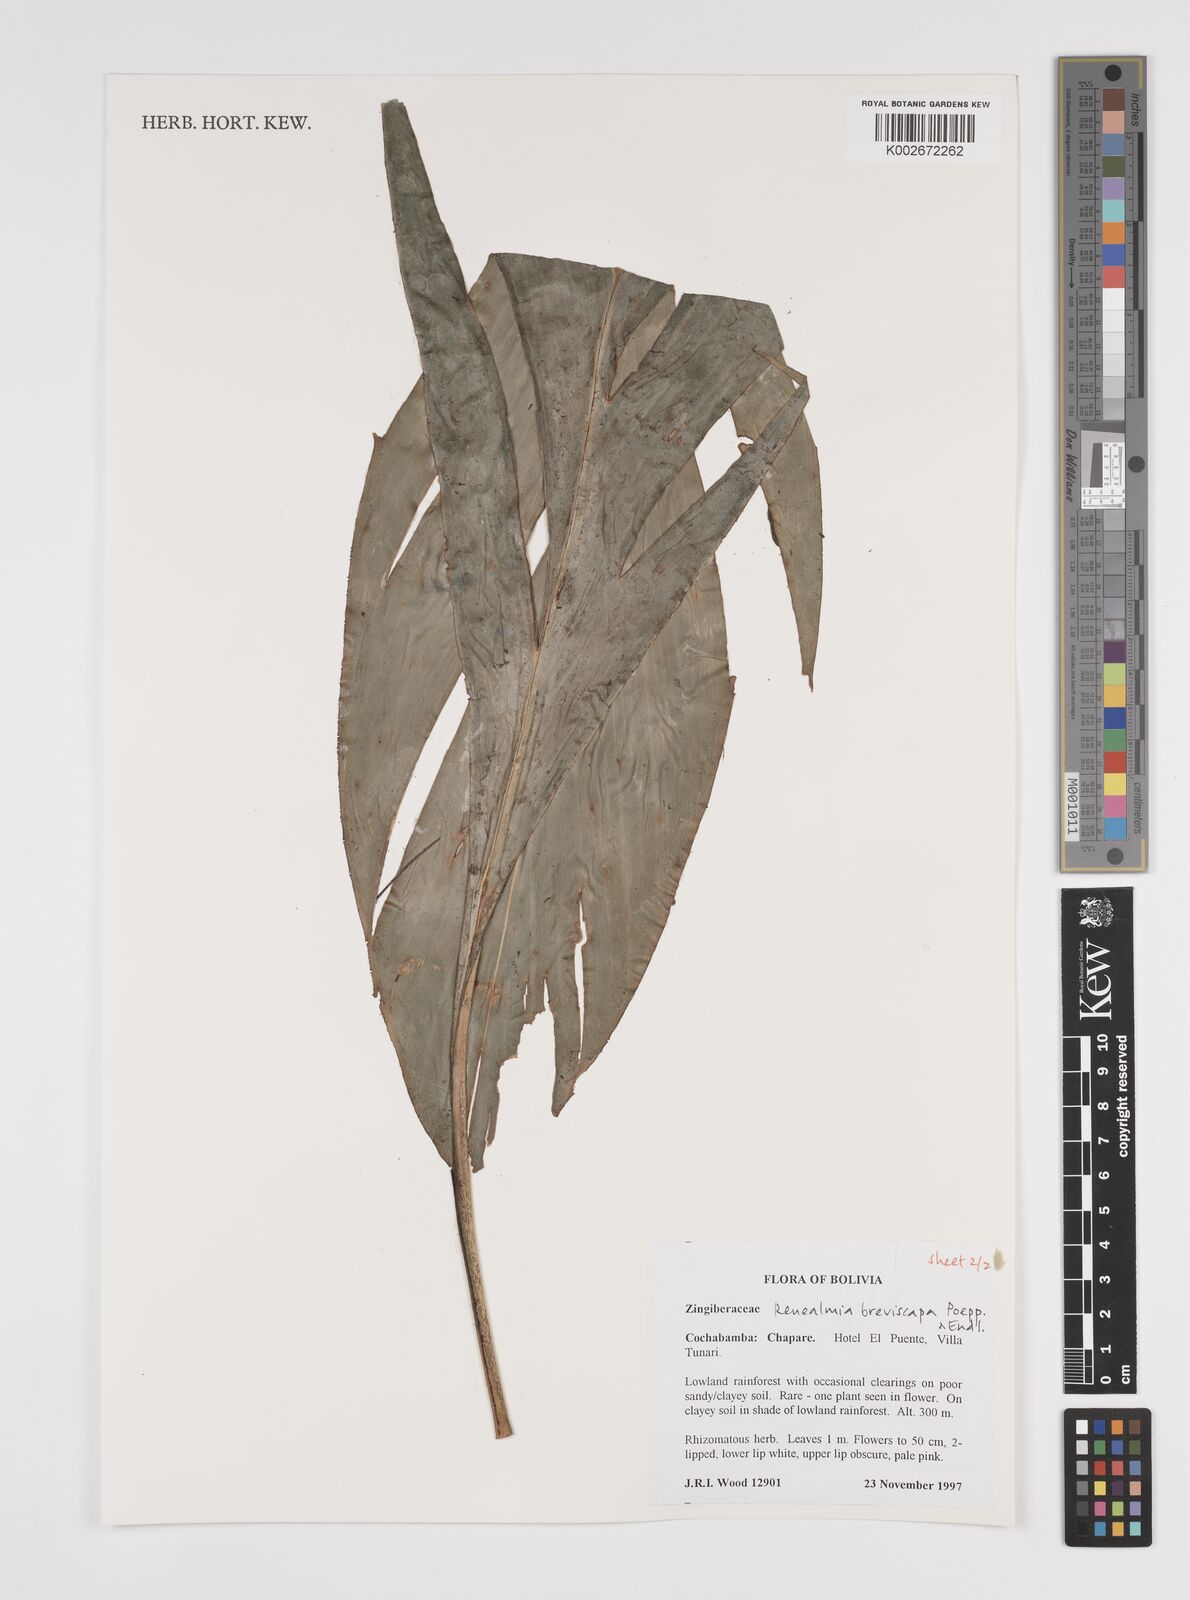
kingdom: Plantae
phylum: Tracheophyta
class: Liliopsida
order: Zingiberales
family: Zingiberaceae
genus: Renealmia
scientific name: Renealmia breviscapa
